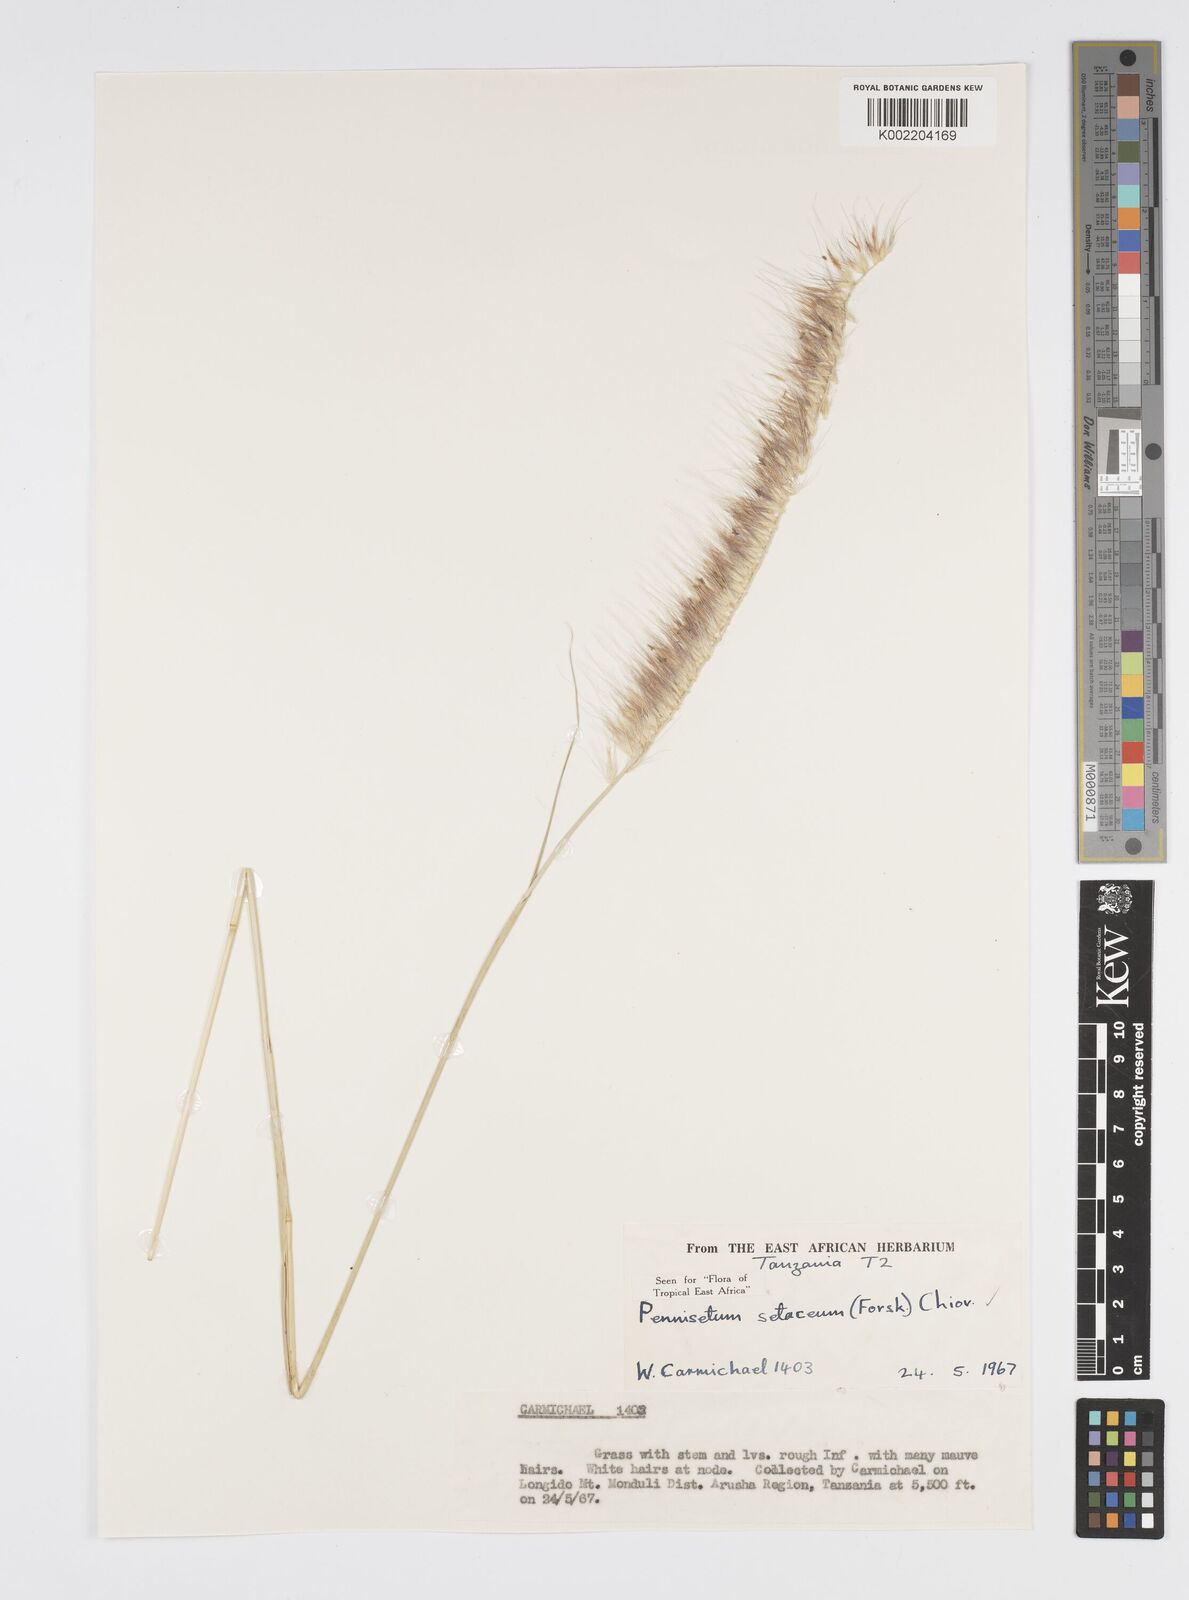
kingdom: Plantae
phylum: Tracheophyta
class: Liliopsida
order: Poales
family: Poaceae
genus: Cenchrus
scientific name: Cenchrus setaceus
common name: Crimson fountaingrass
